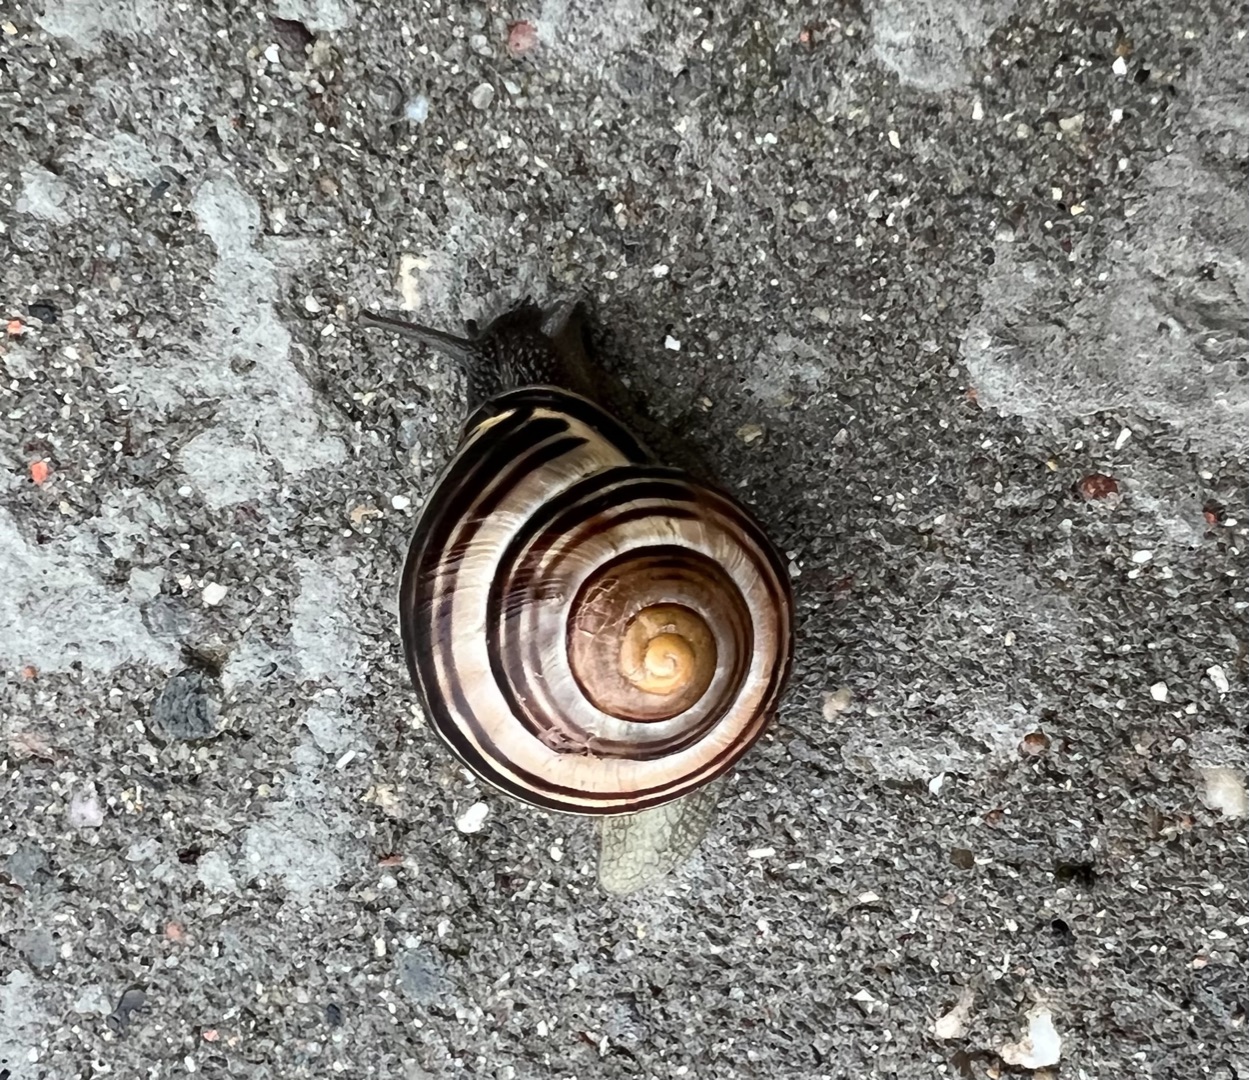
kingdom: Animalia
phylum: Mollusca
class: Gastropoda
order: Stylommatophora
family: Helicidae
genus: Cepaea
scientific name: Cepaea nemoralis
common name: Lundsnegl
